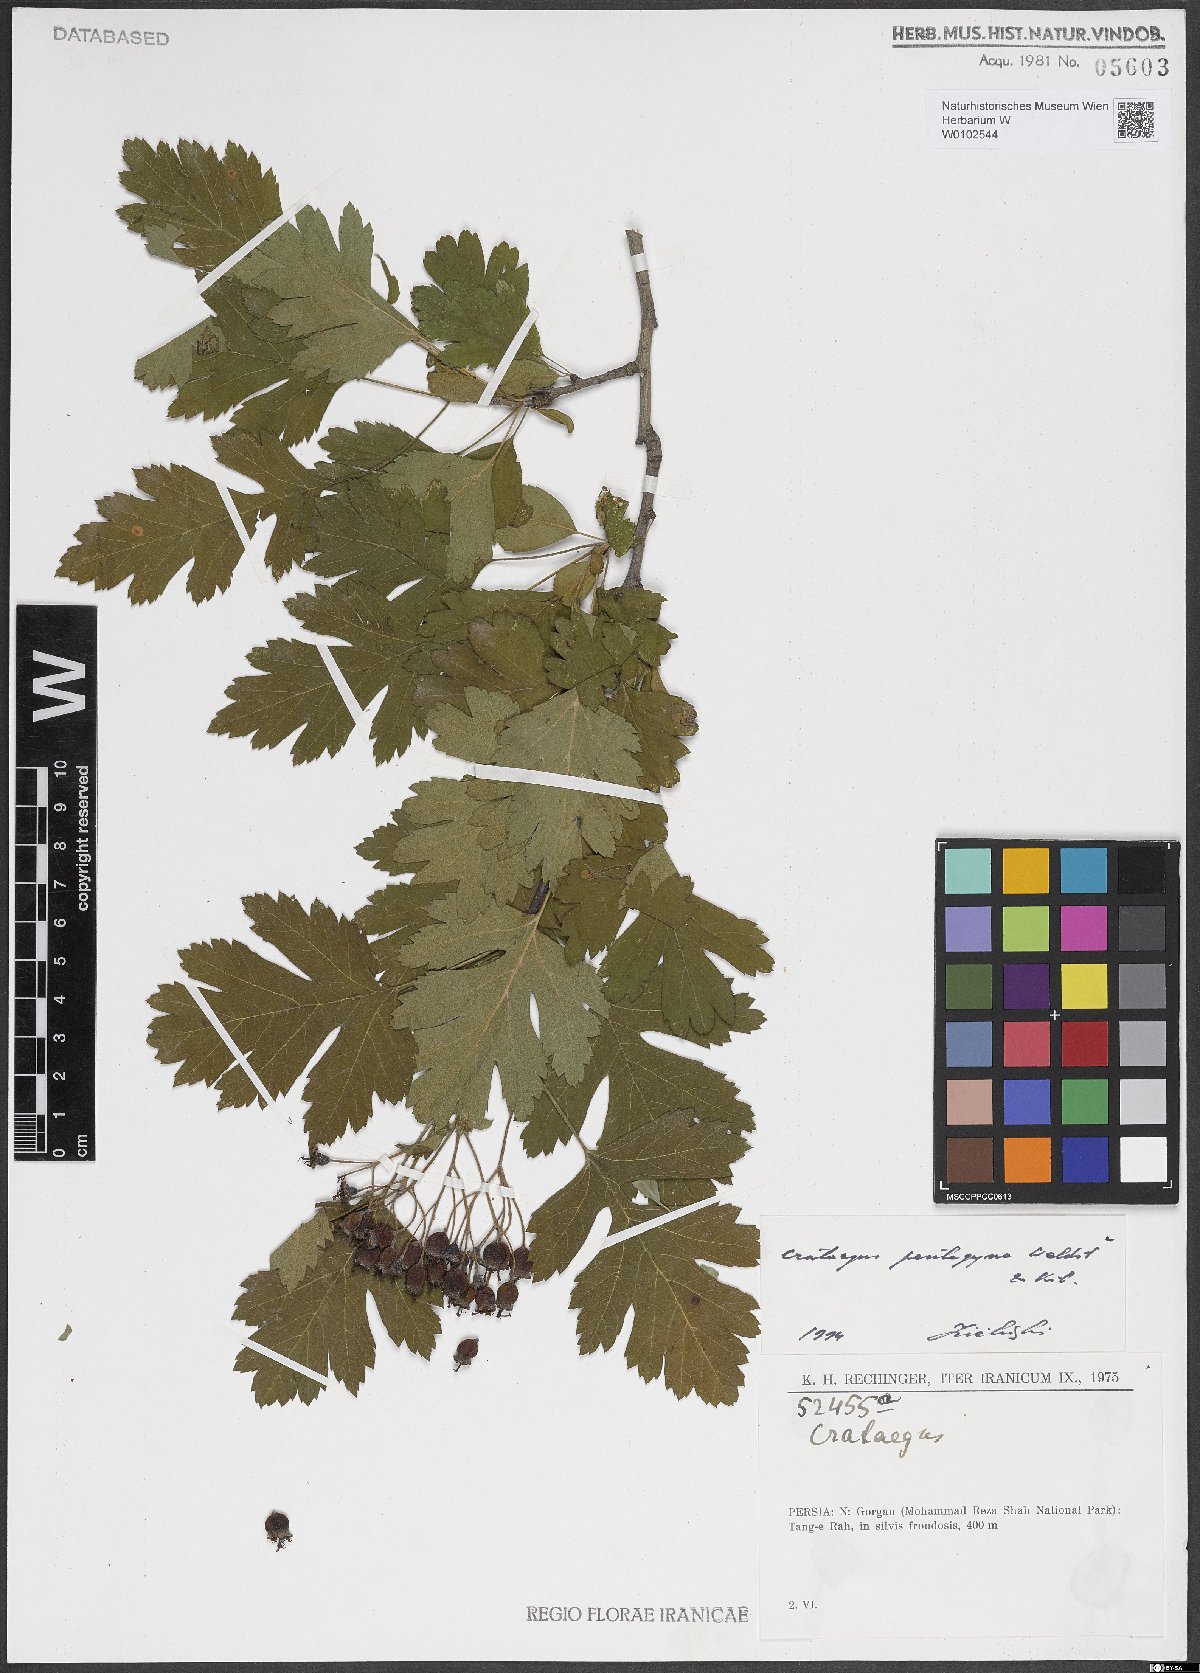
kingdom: Plantae
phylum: Tracheophyta
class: Magnoliopsida
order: Rosales
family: Rosaceae
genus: Crataegus
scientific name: Crataegus pentagyna
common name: Small-flowered black hawthorn
